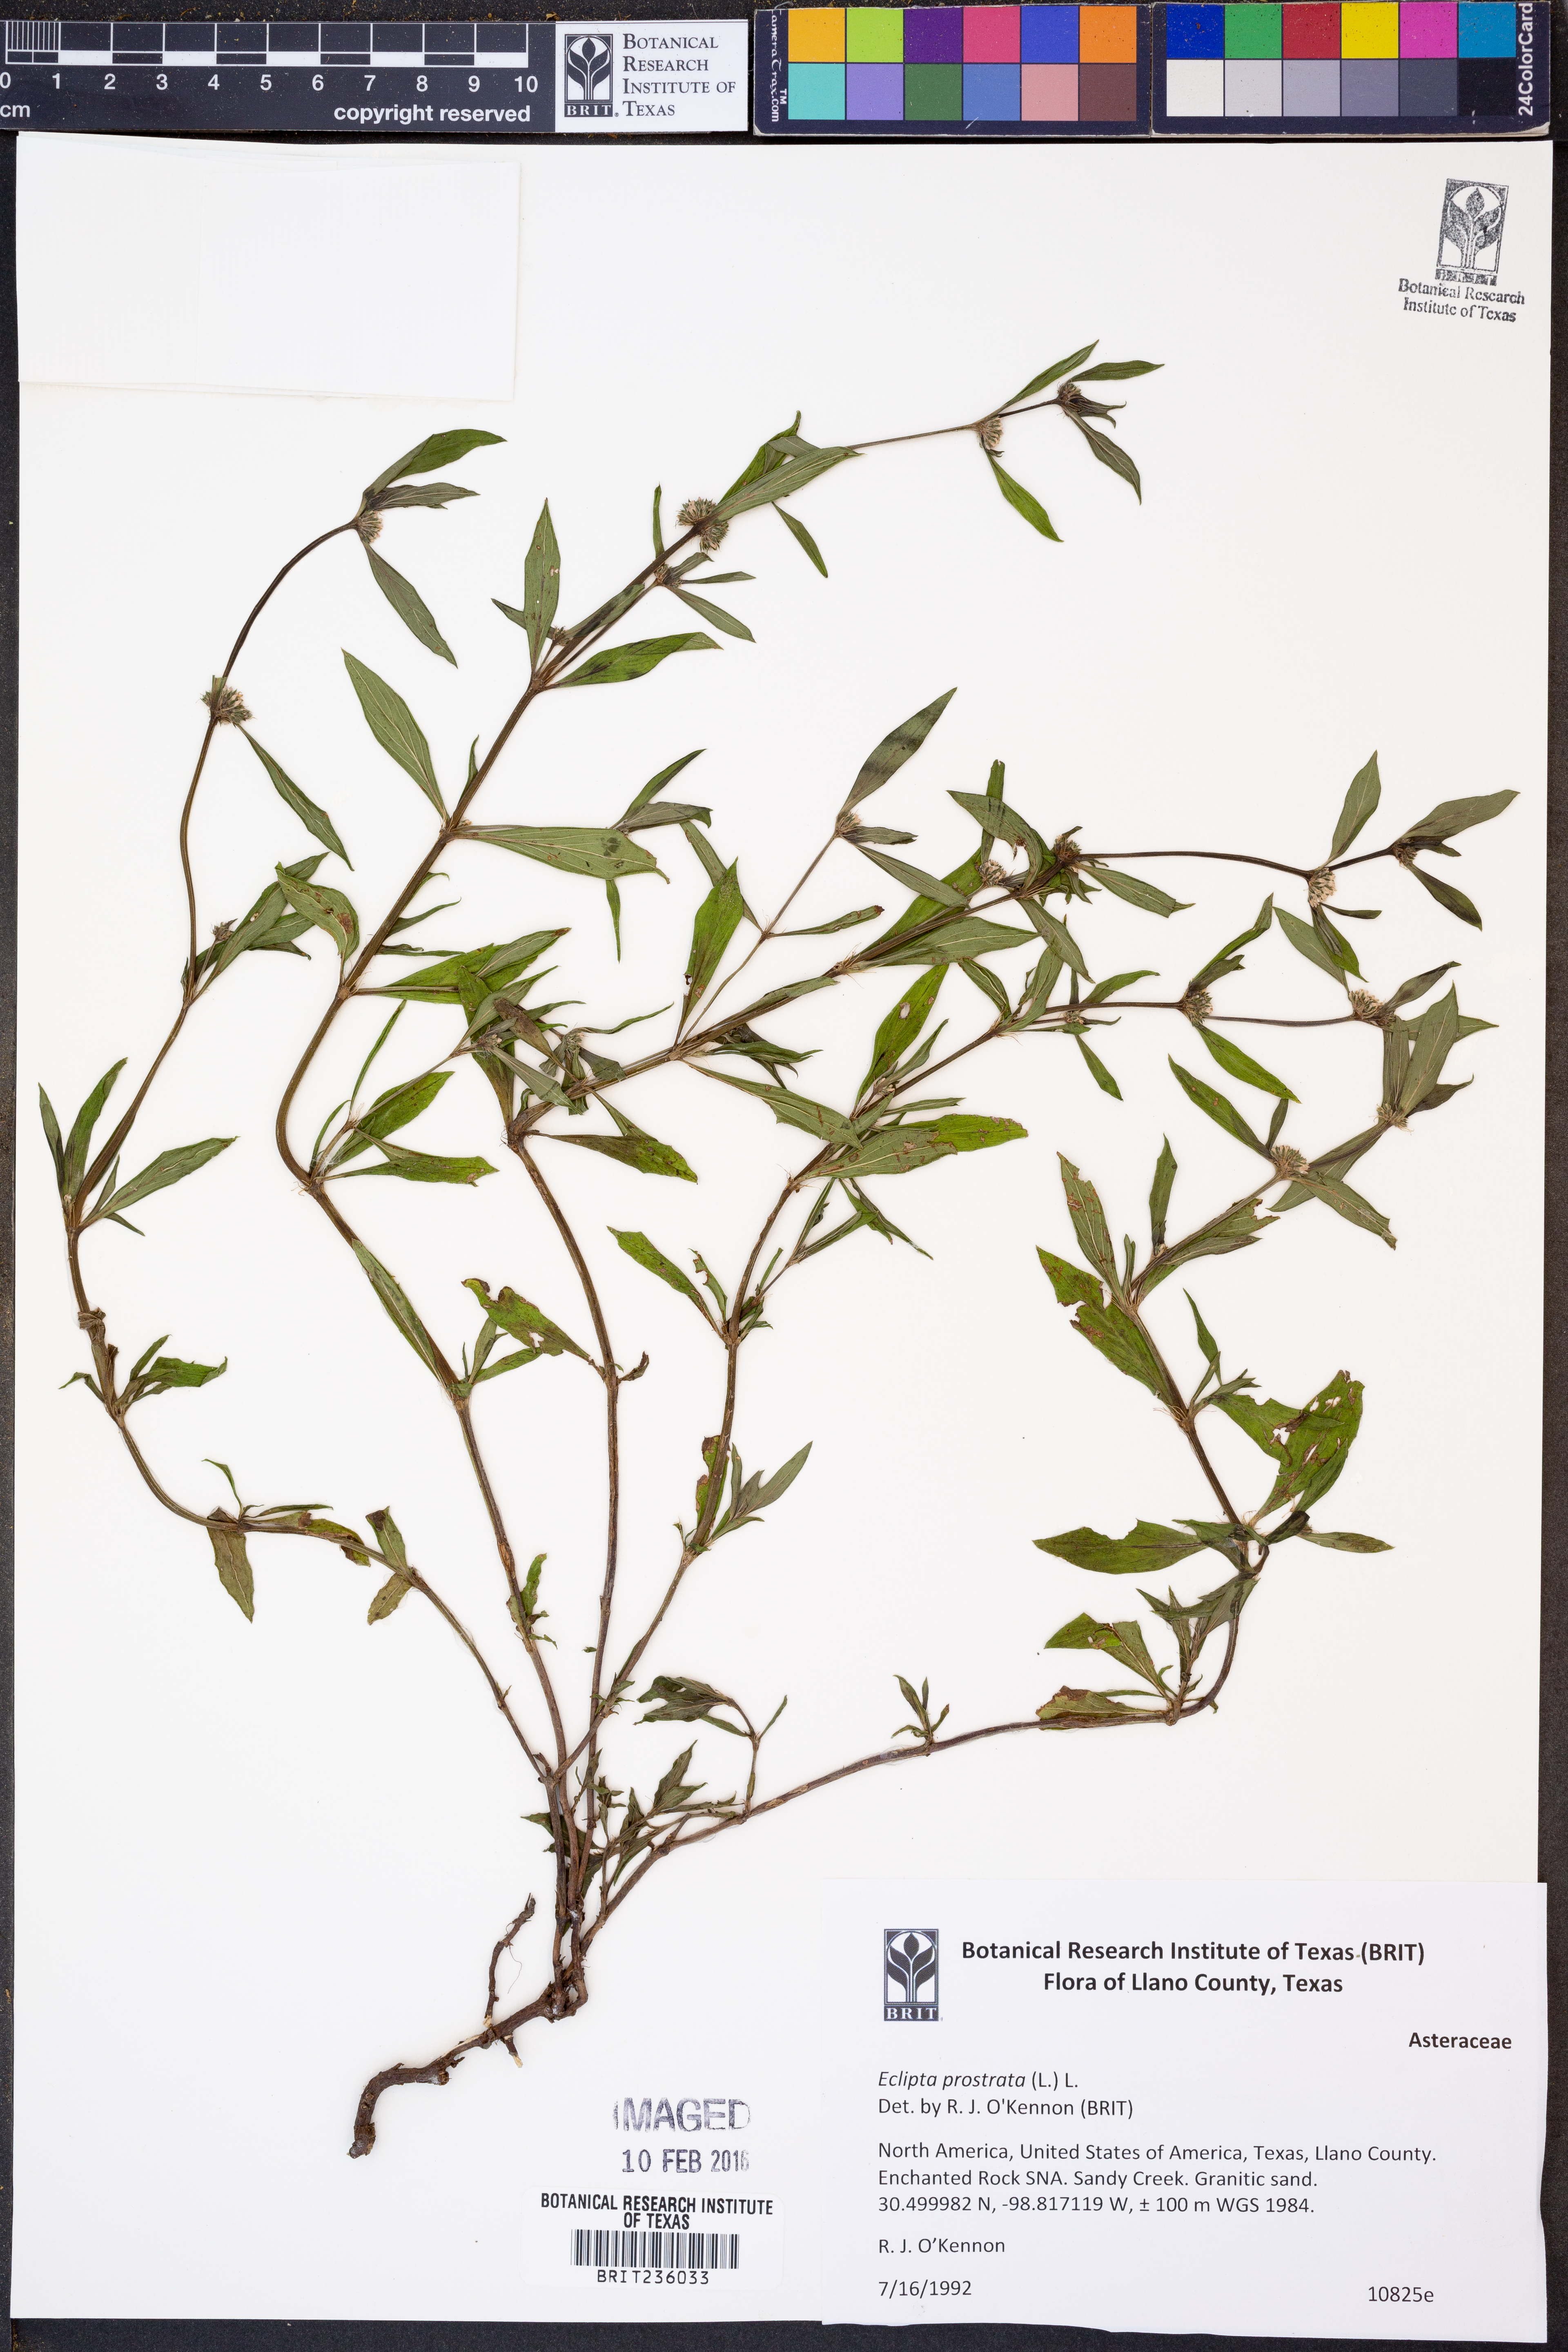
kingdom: Plantae
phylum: Tracheophyta
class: Magnoliopsida
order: Asterales
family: Asteraceae
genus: Eclipta
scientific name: Eclipta prostrata
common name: False daisy
